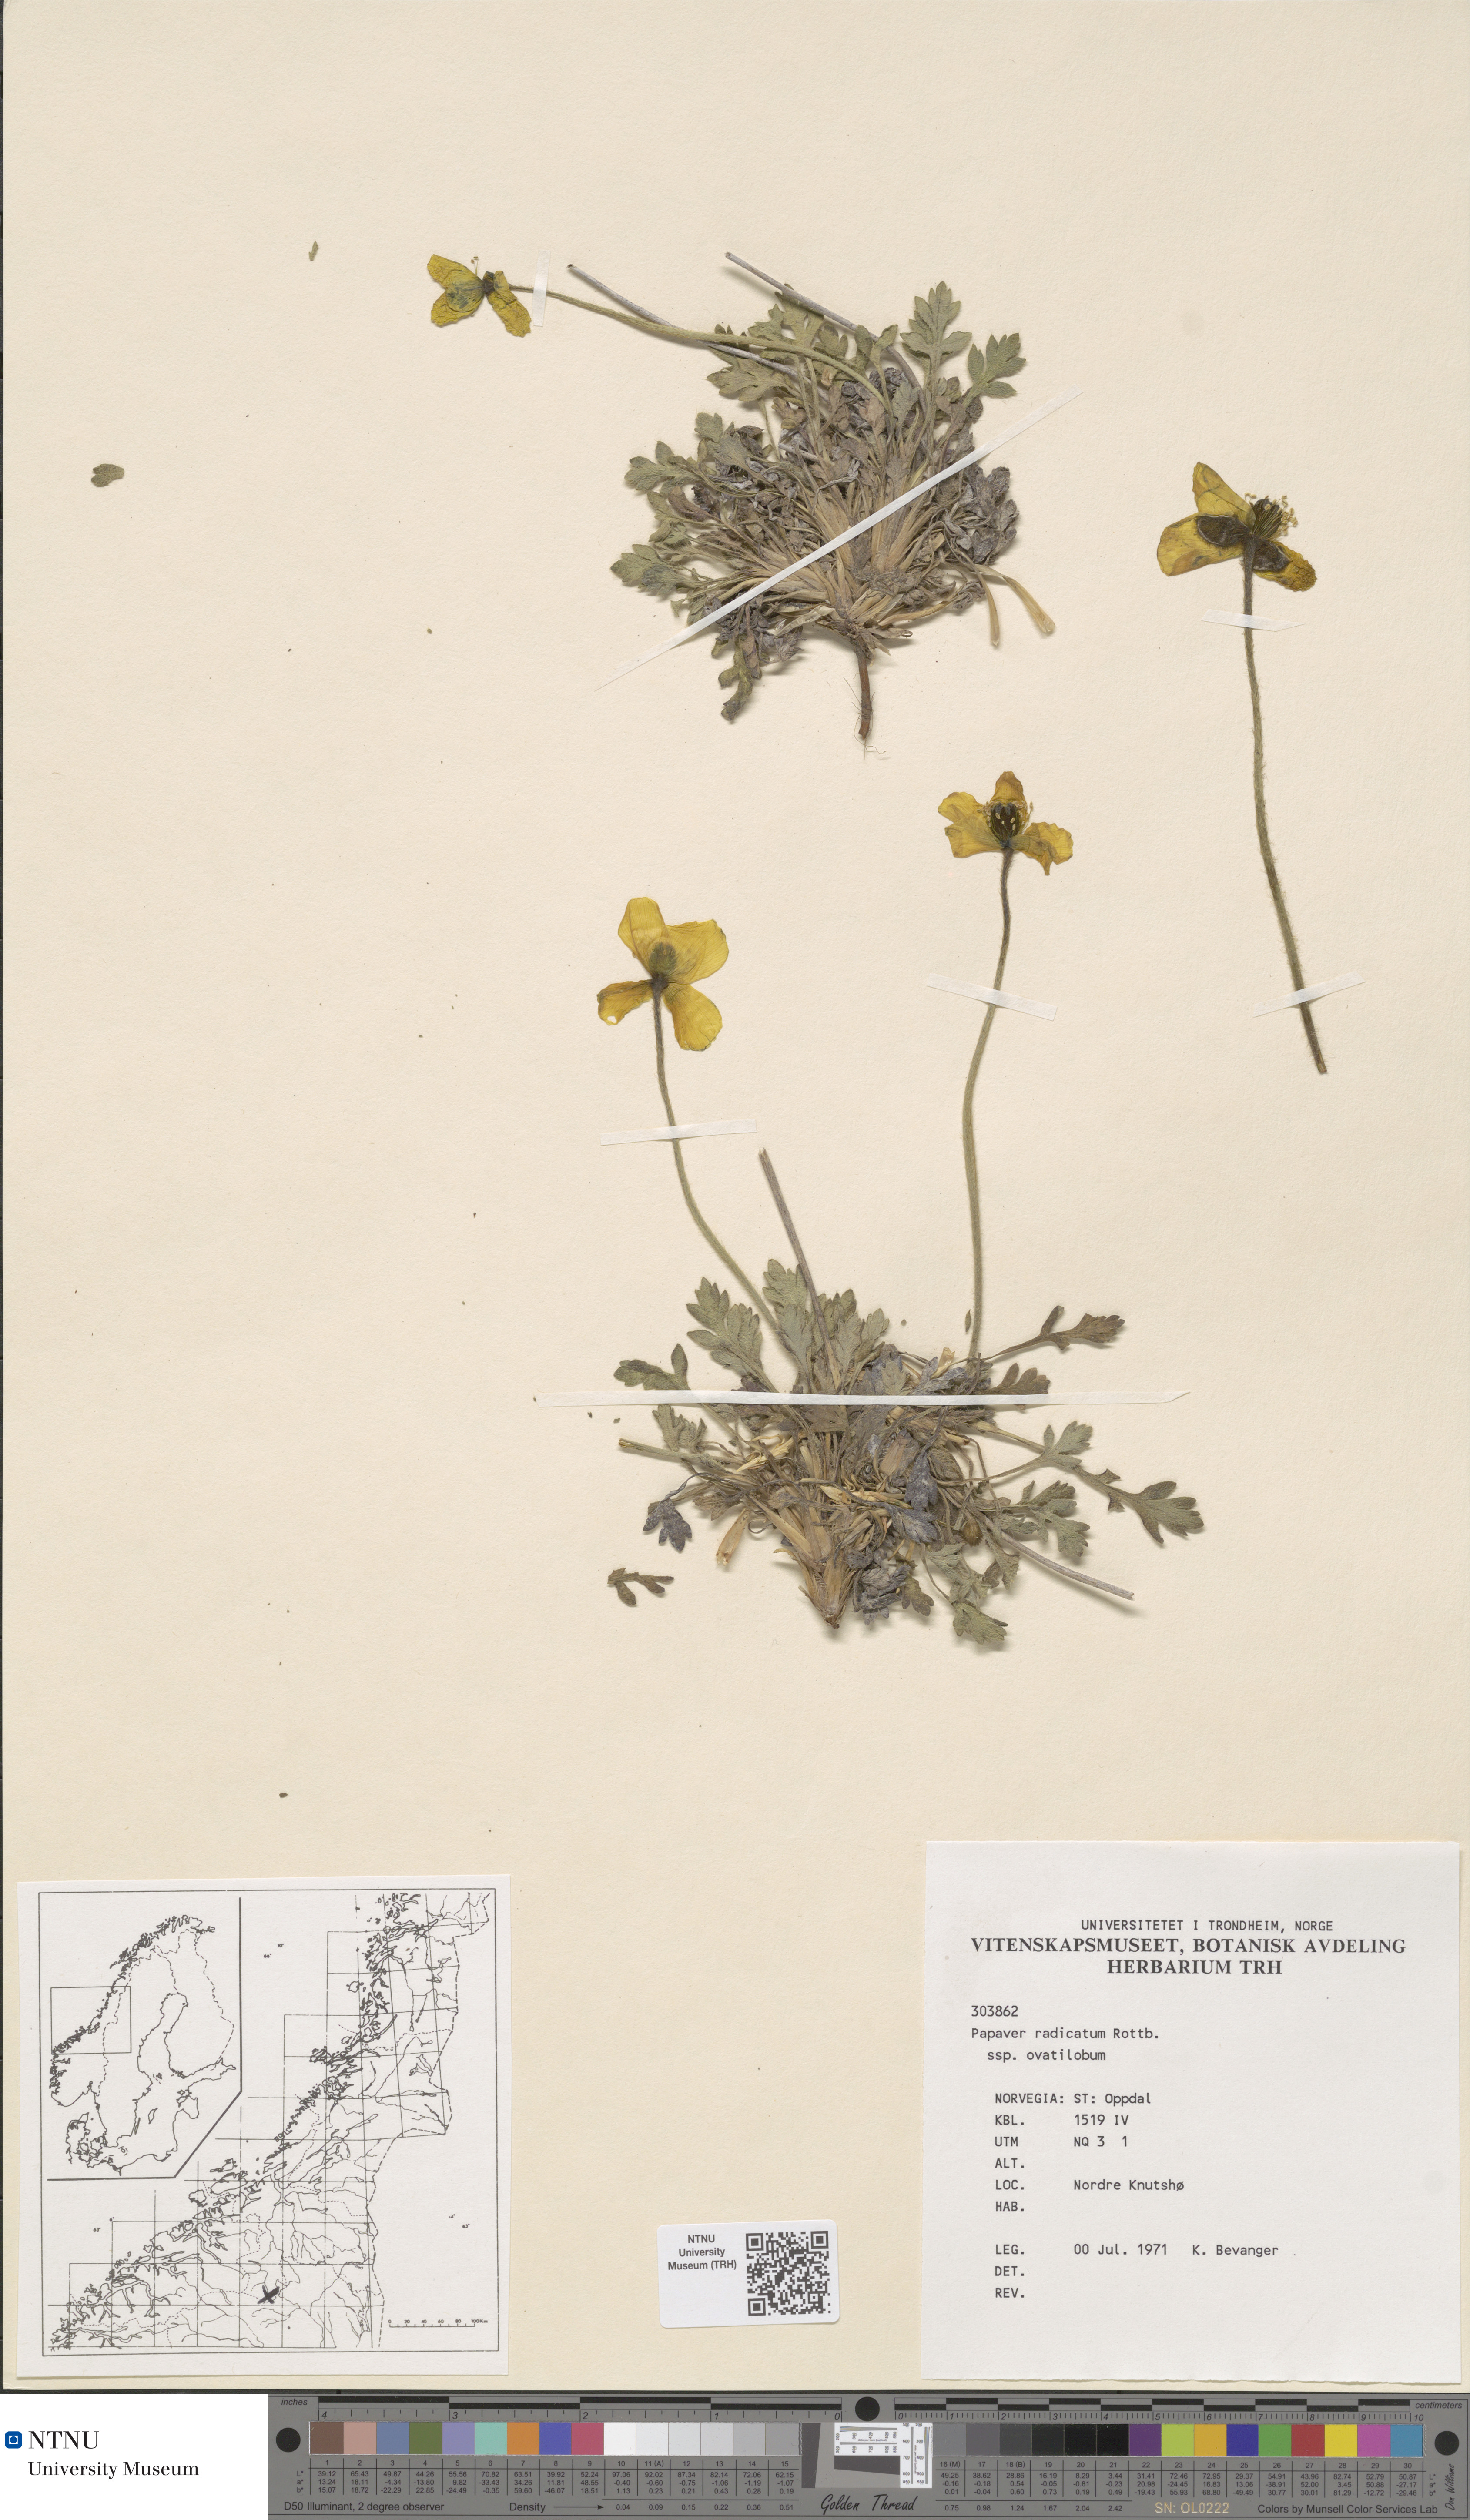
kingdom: Plantae
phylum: Tracheophyta
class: Magnoliopsida
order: Ranunculales
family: Papaveraceae
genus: Papaver
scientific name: Papaver radicatum
